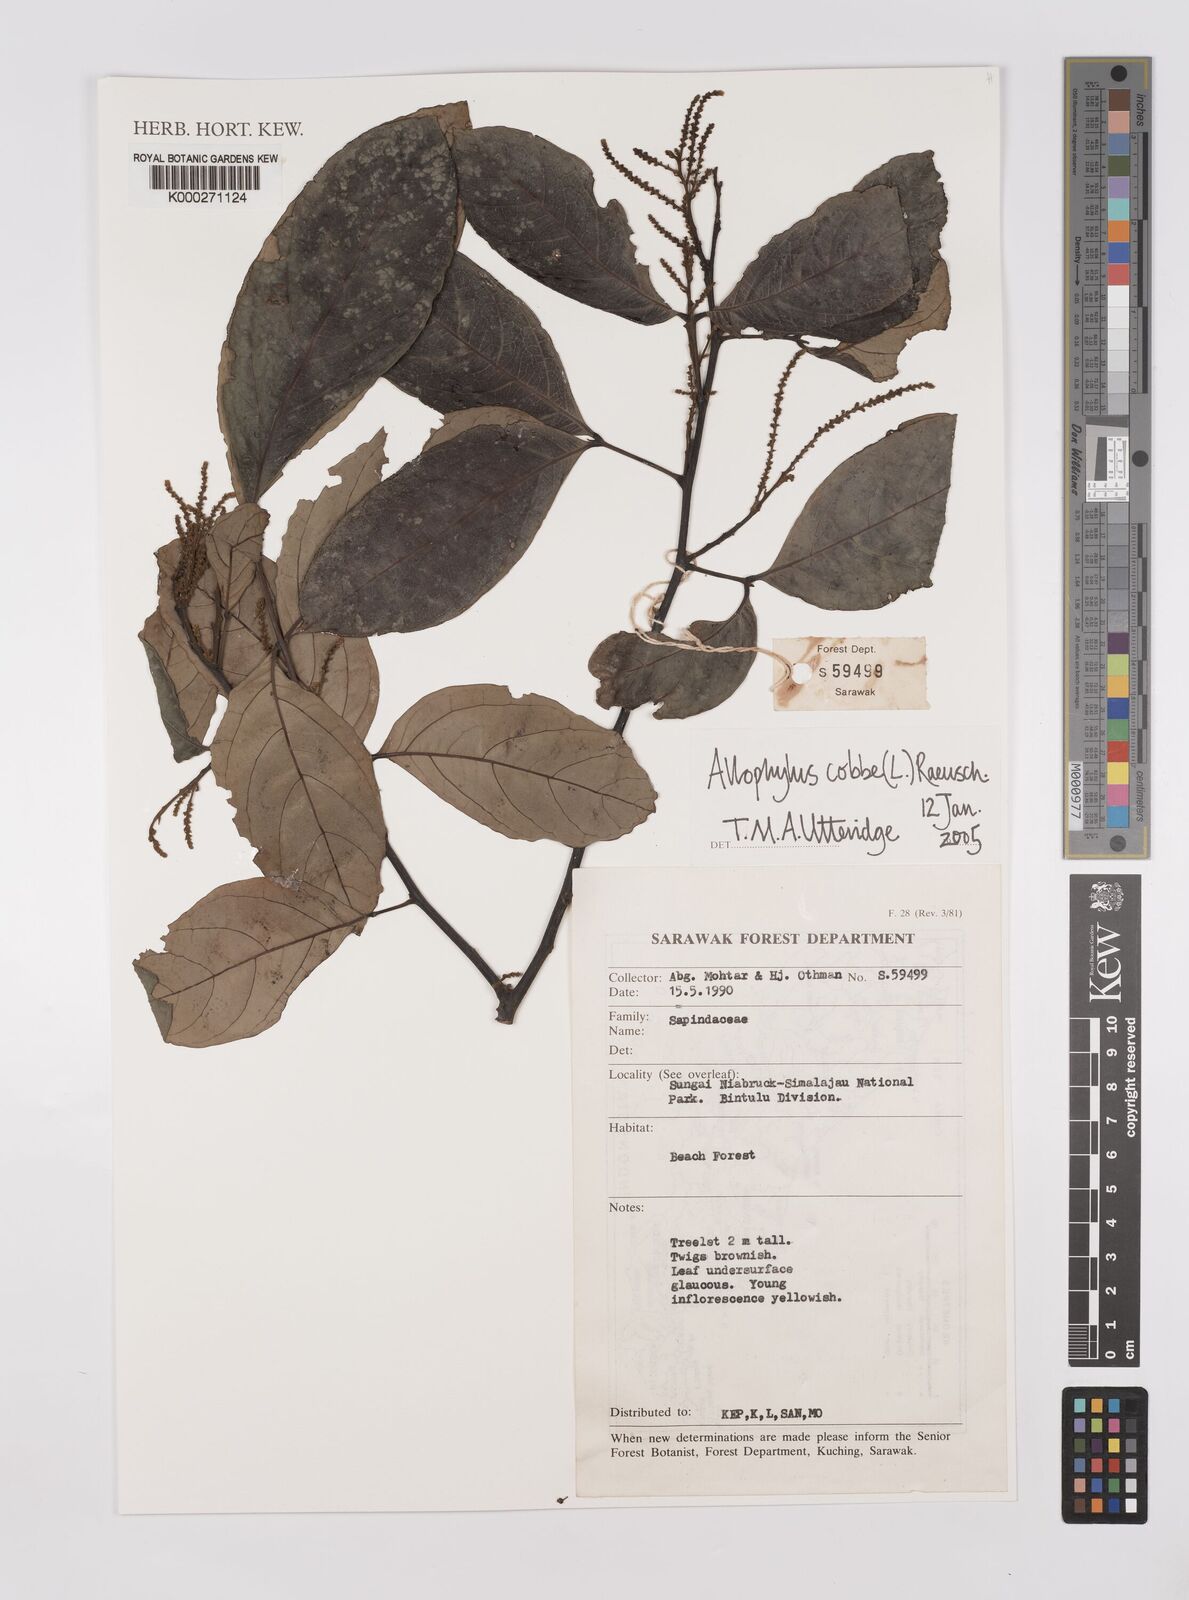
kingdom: Plantae
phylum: Tracheophyta
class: Magnoliopsida
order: Sapindales
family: Sapindaceae
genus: Allophylus
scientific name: Allophylus
